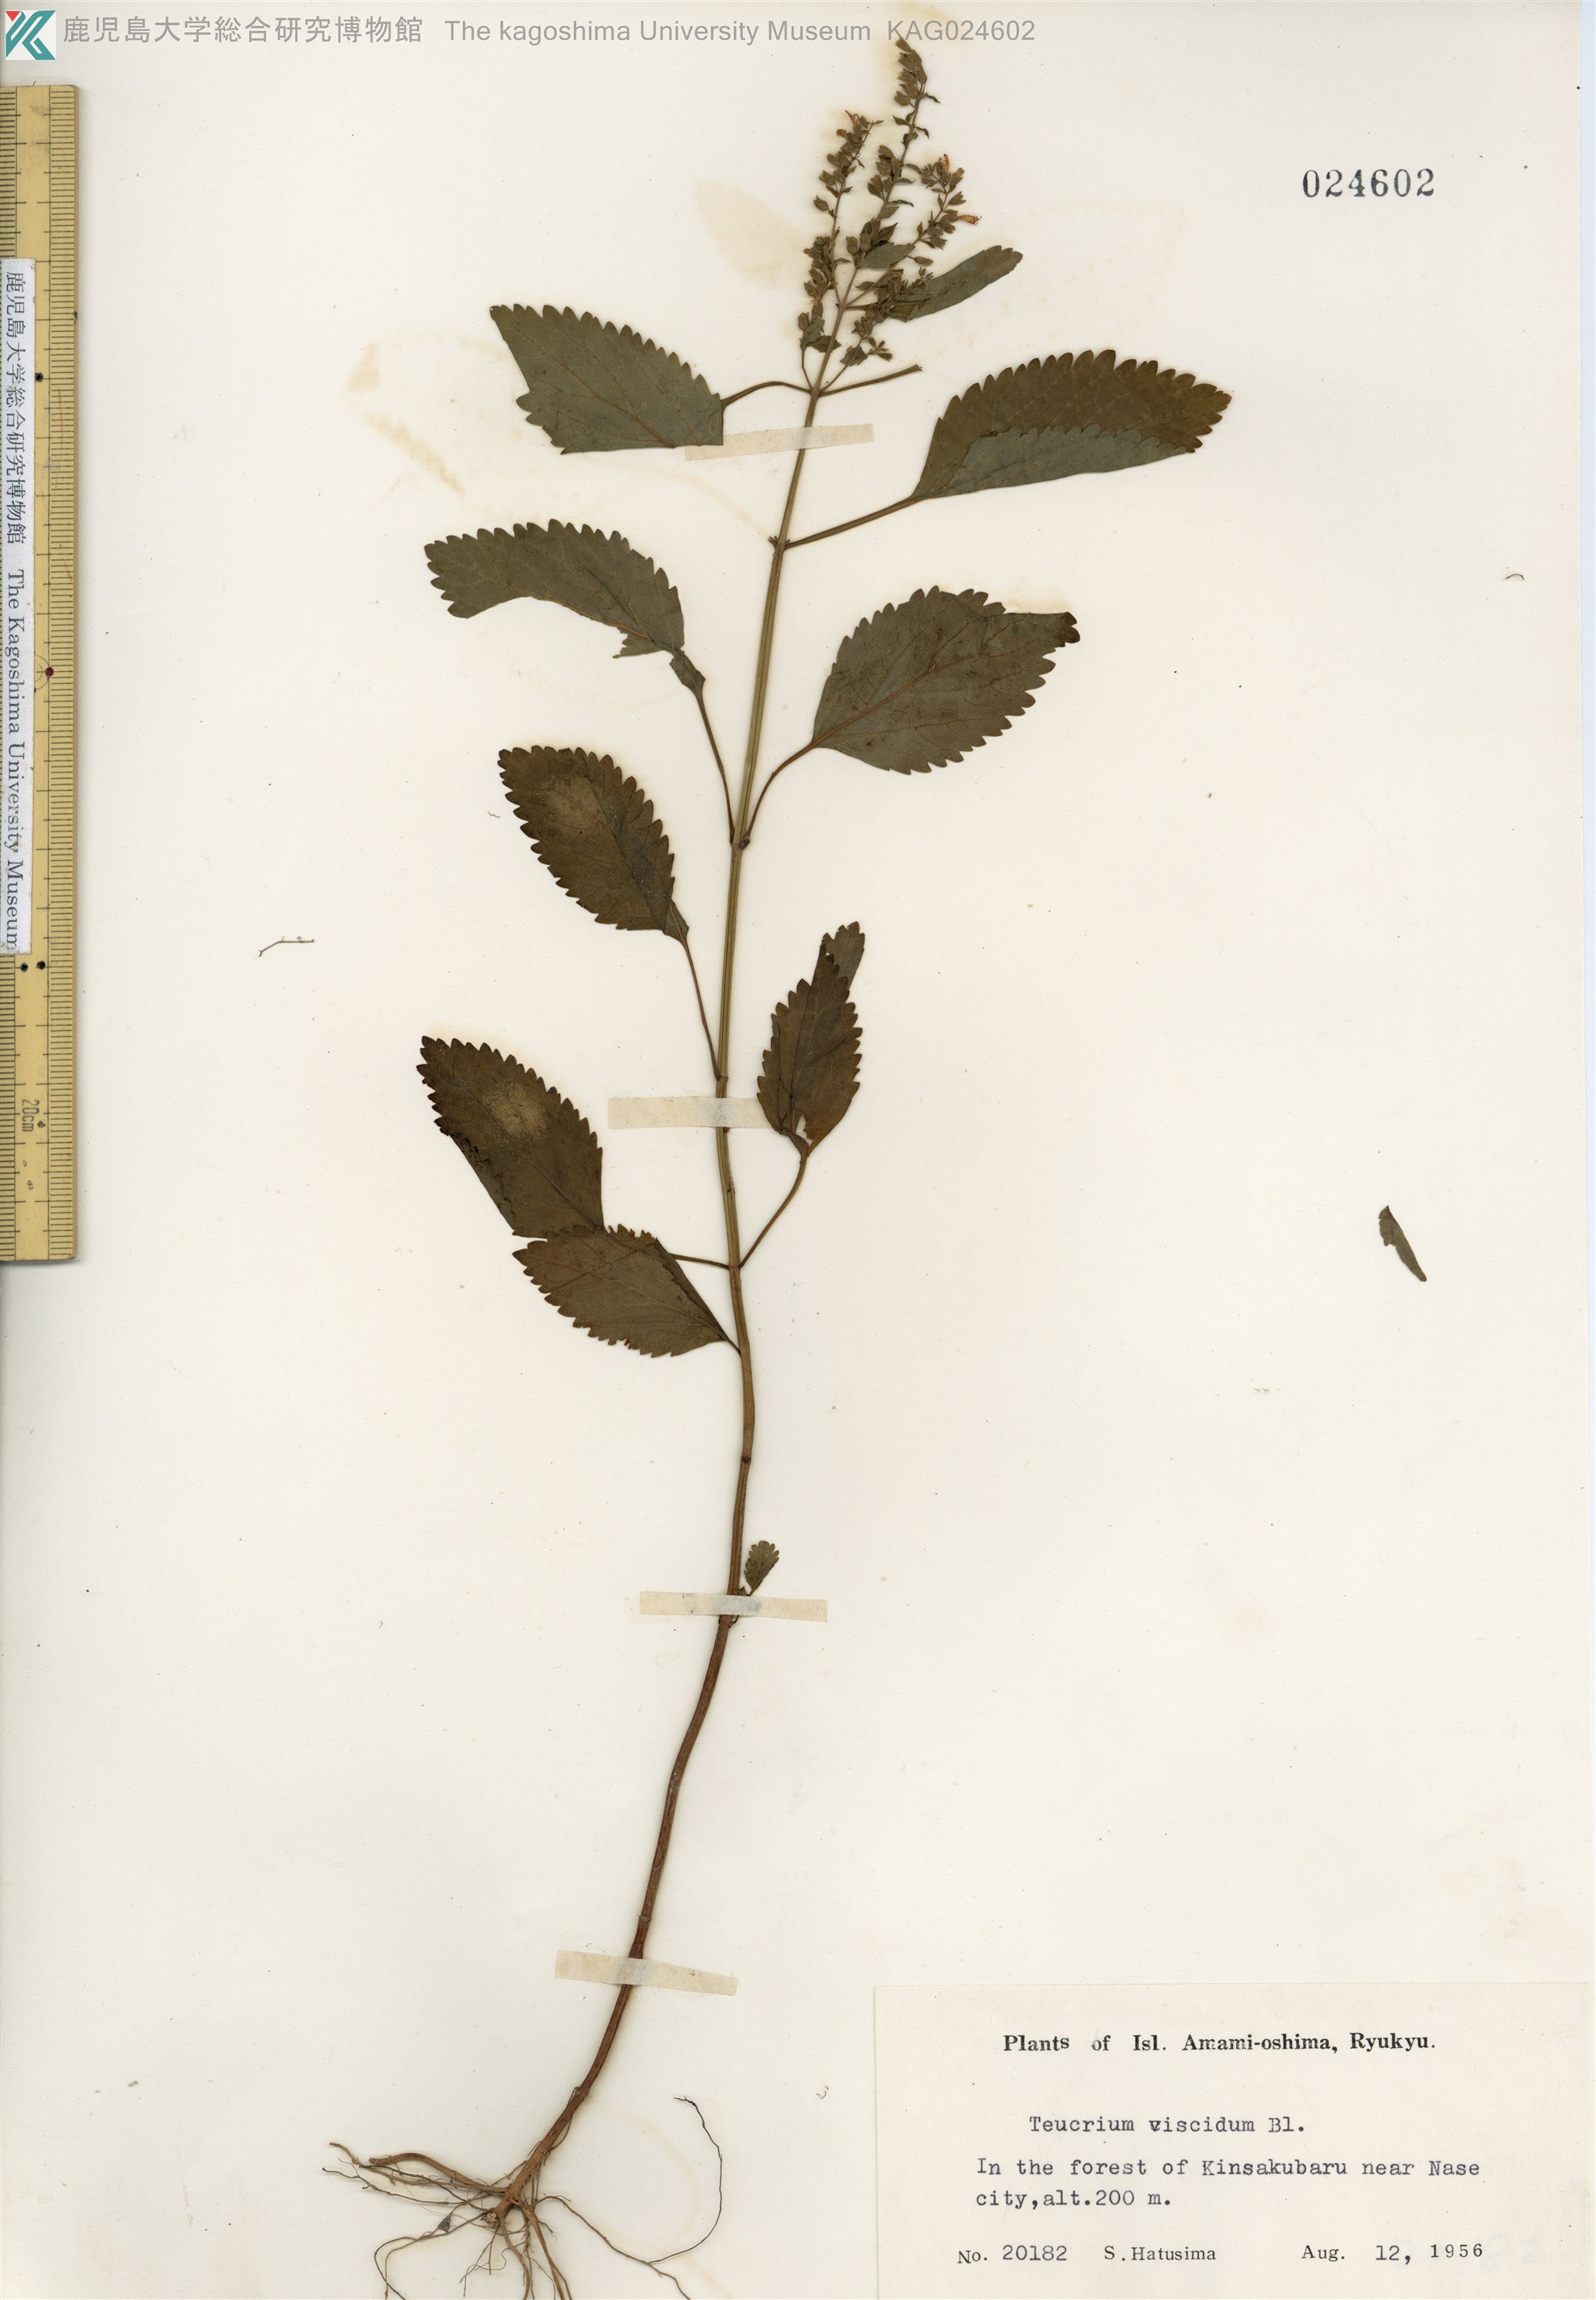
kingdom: Plantae
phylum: Tracheophyta
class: Magnoliopsida
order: Lamiales
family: Lamiaceae
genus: Teucrium
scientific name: Teucrium viscidum
